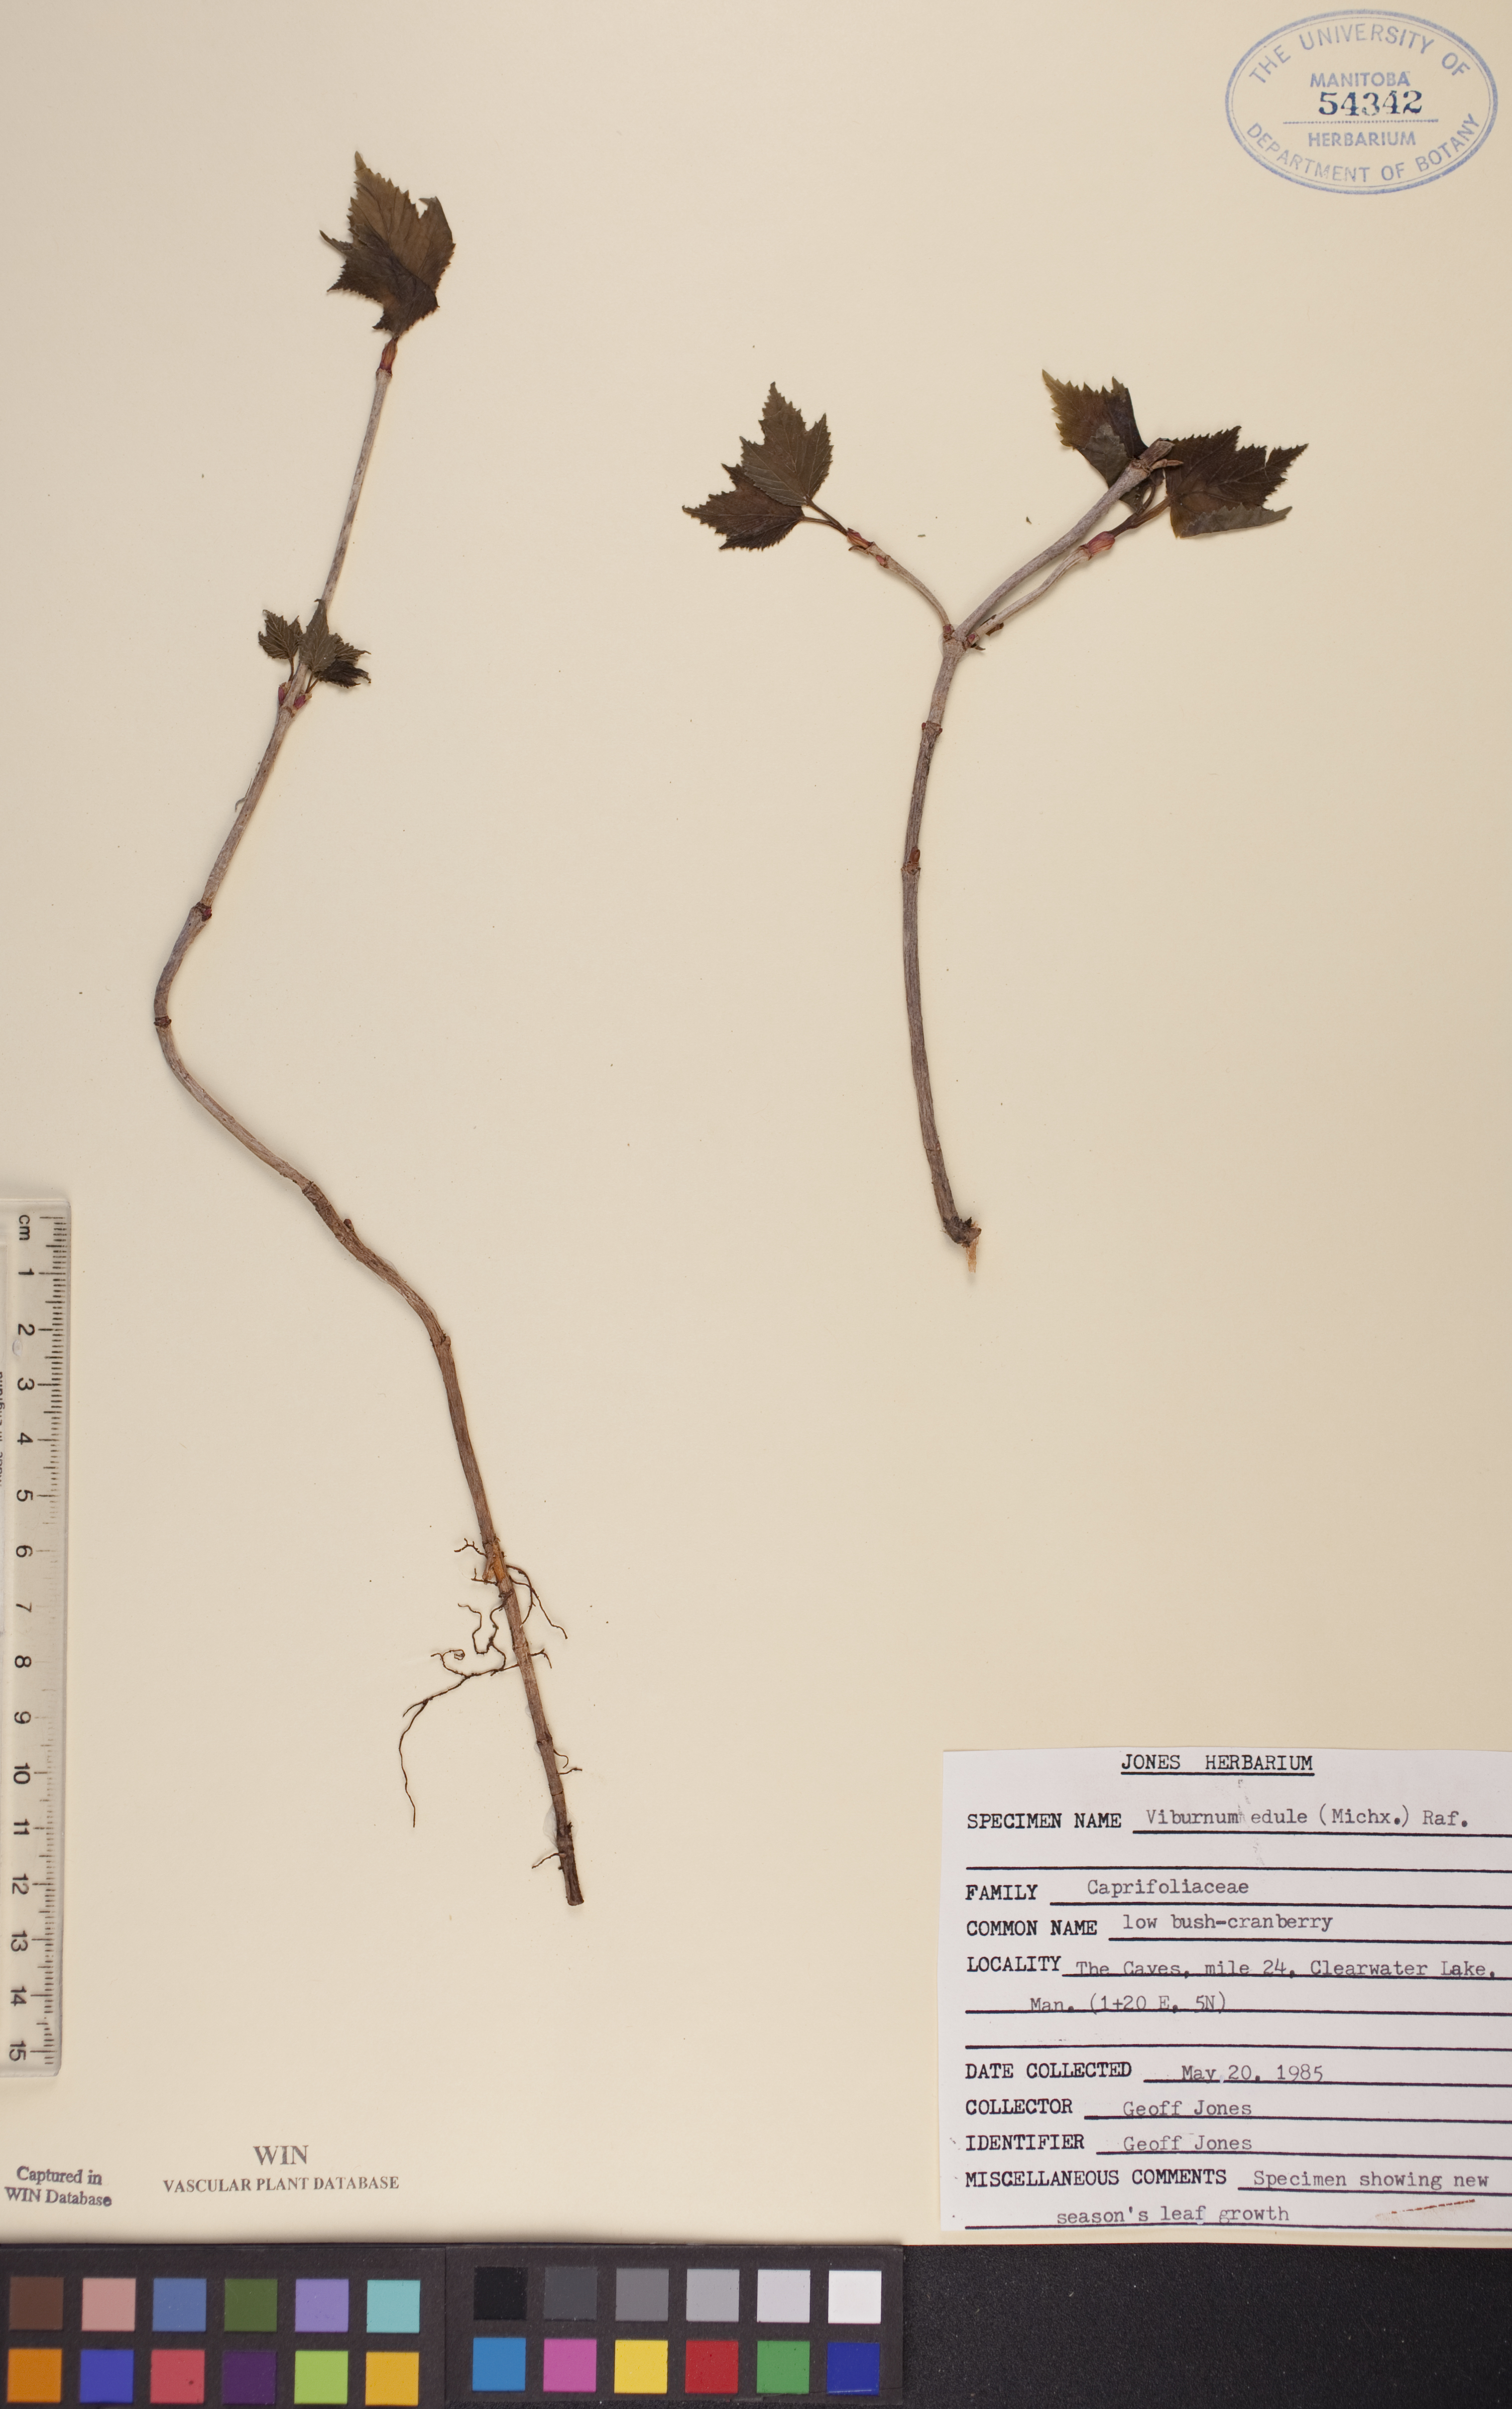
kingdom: Plantae
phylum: Tracheophyta
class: Magnoliopsida
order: Dipsacales
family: Viburnaceae
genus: Viburnum
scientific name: Viburnum edule
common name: Mooseberry
